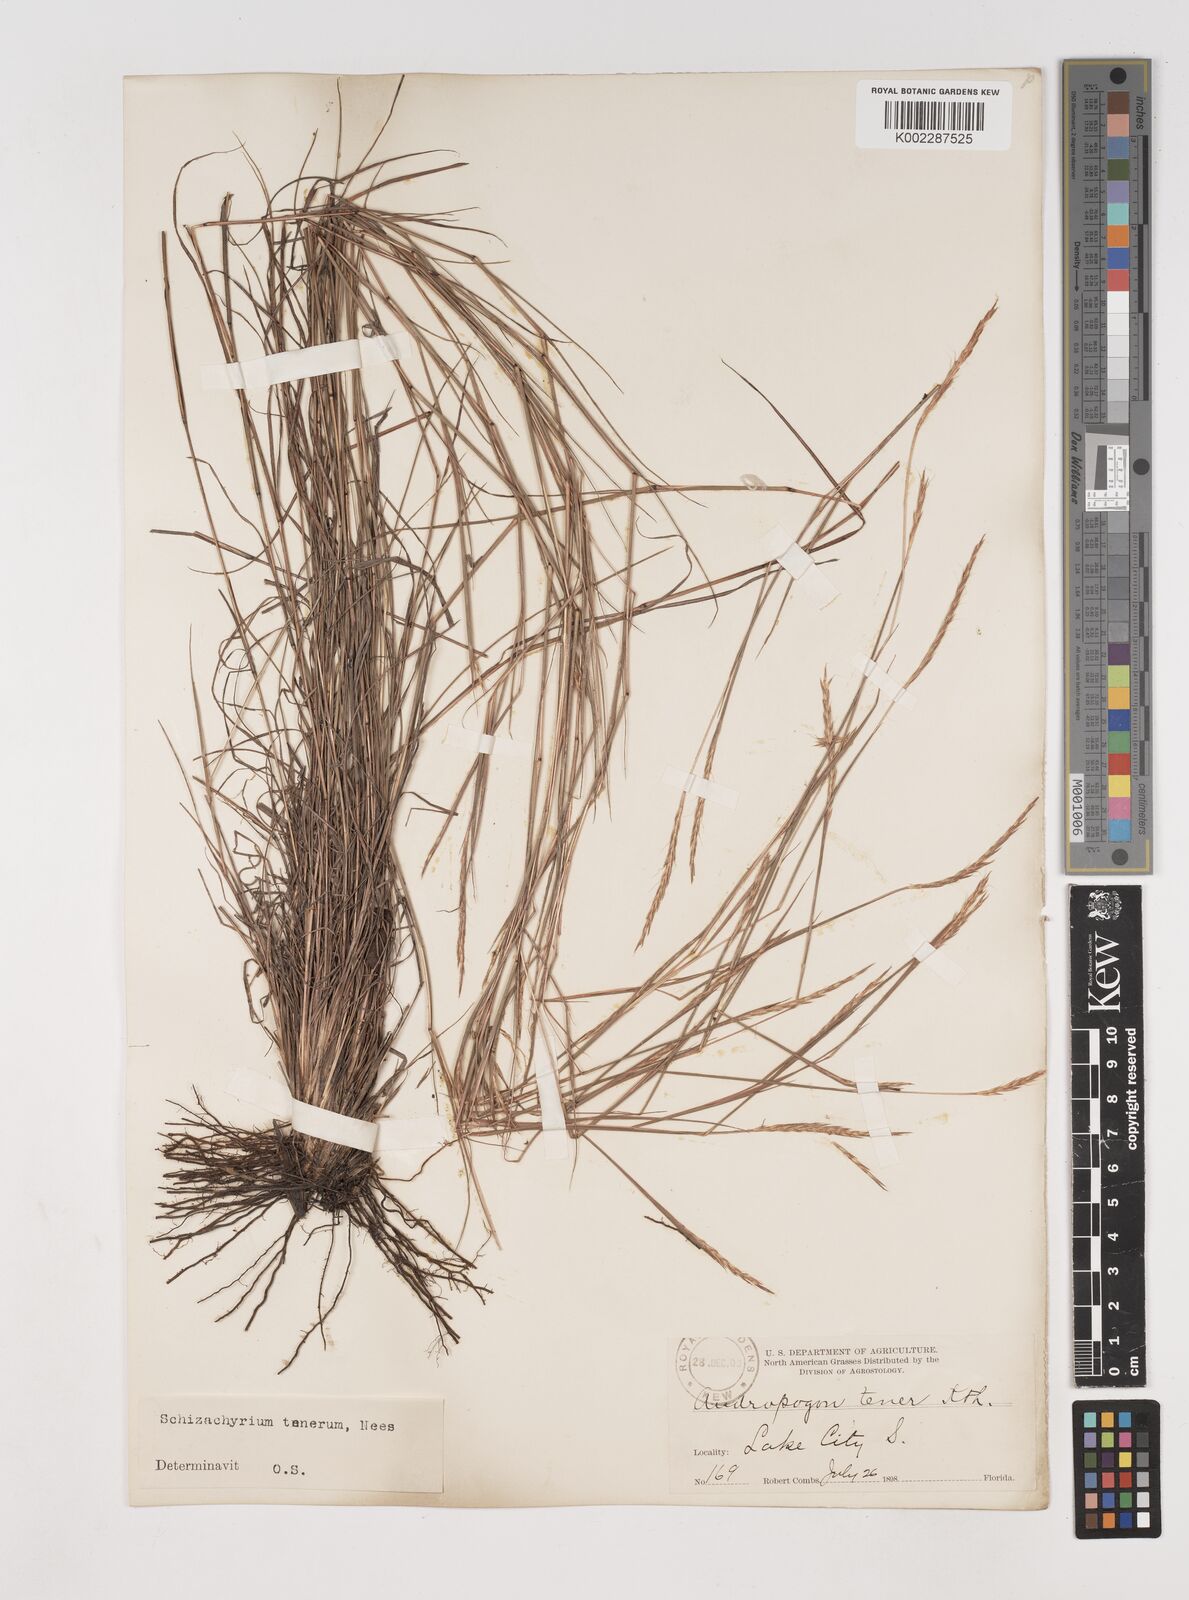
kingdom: Plantae
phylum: Tracheophyta
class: Liliopsida
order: Poales
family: Poaceae
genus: Andropogon
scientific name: Andropogon tener
